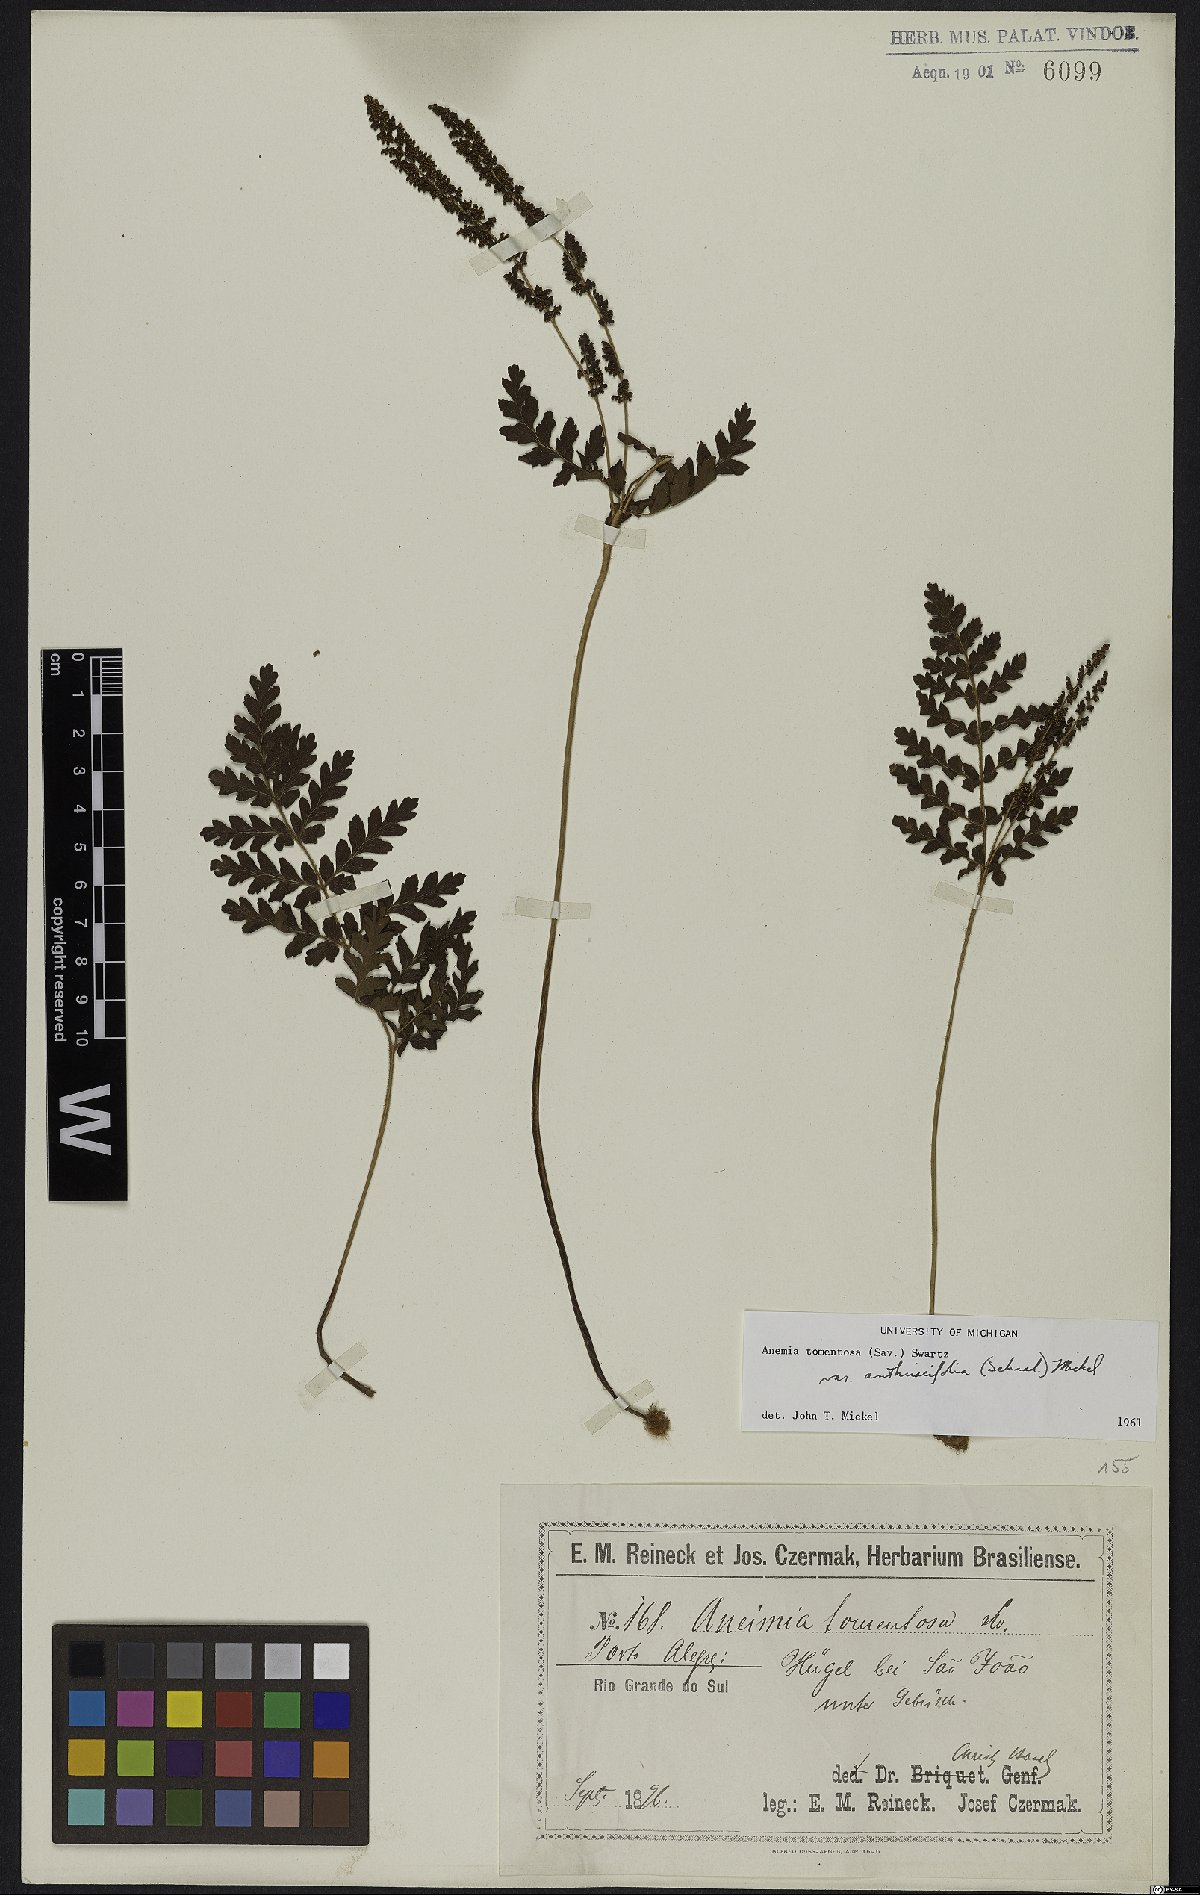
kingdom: Plantae
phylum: Tracheophyta
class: Polypodiopsida
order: Schizaeales
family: Anemiaceae
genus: Anemia
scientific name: Anemia tomentosa
